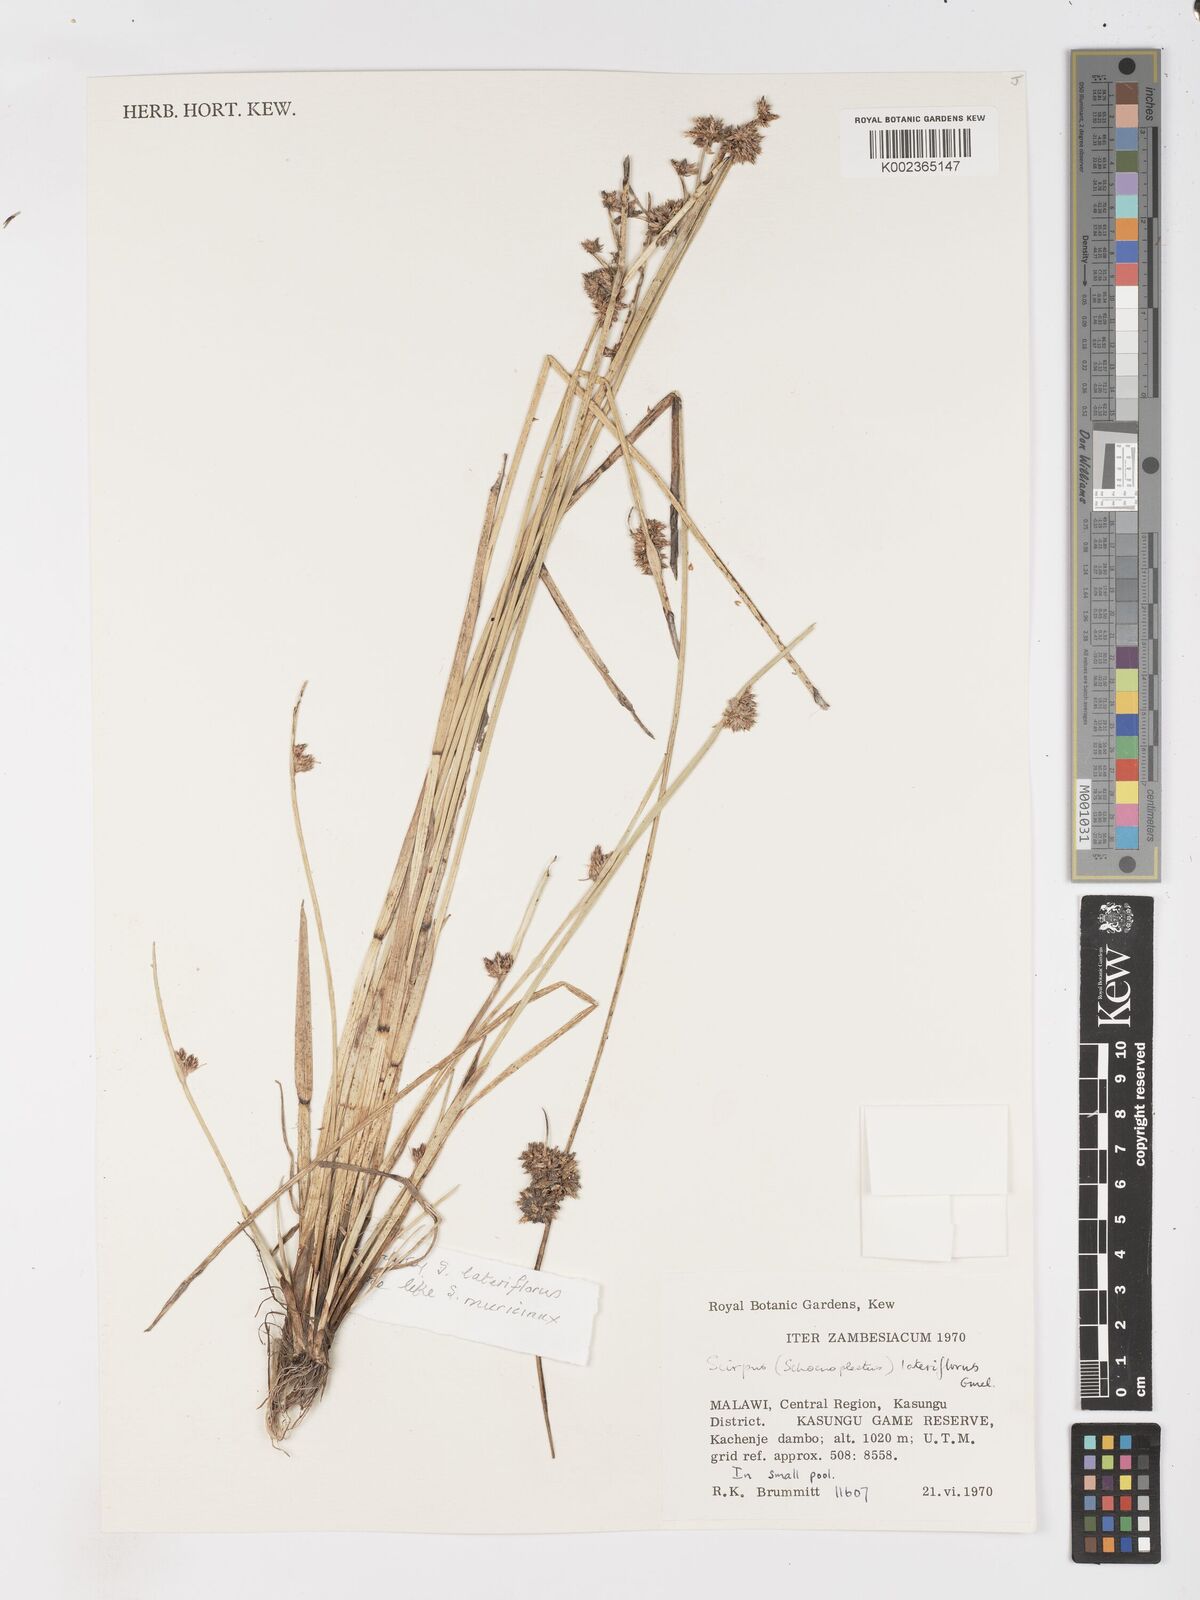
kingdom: Plantae
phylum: Tracheophyta
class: Liliopsida
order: Poales
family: Cyperaceae
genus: Schoenoplectus
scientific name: Schoenoplectus
